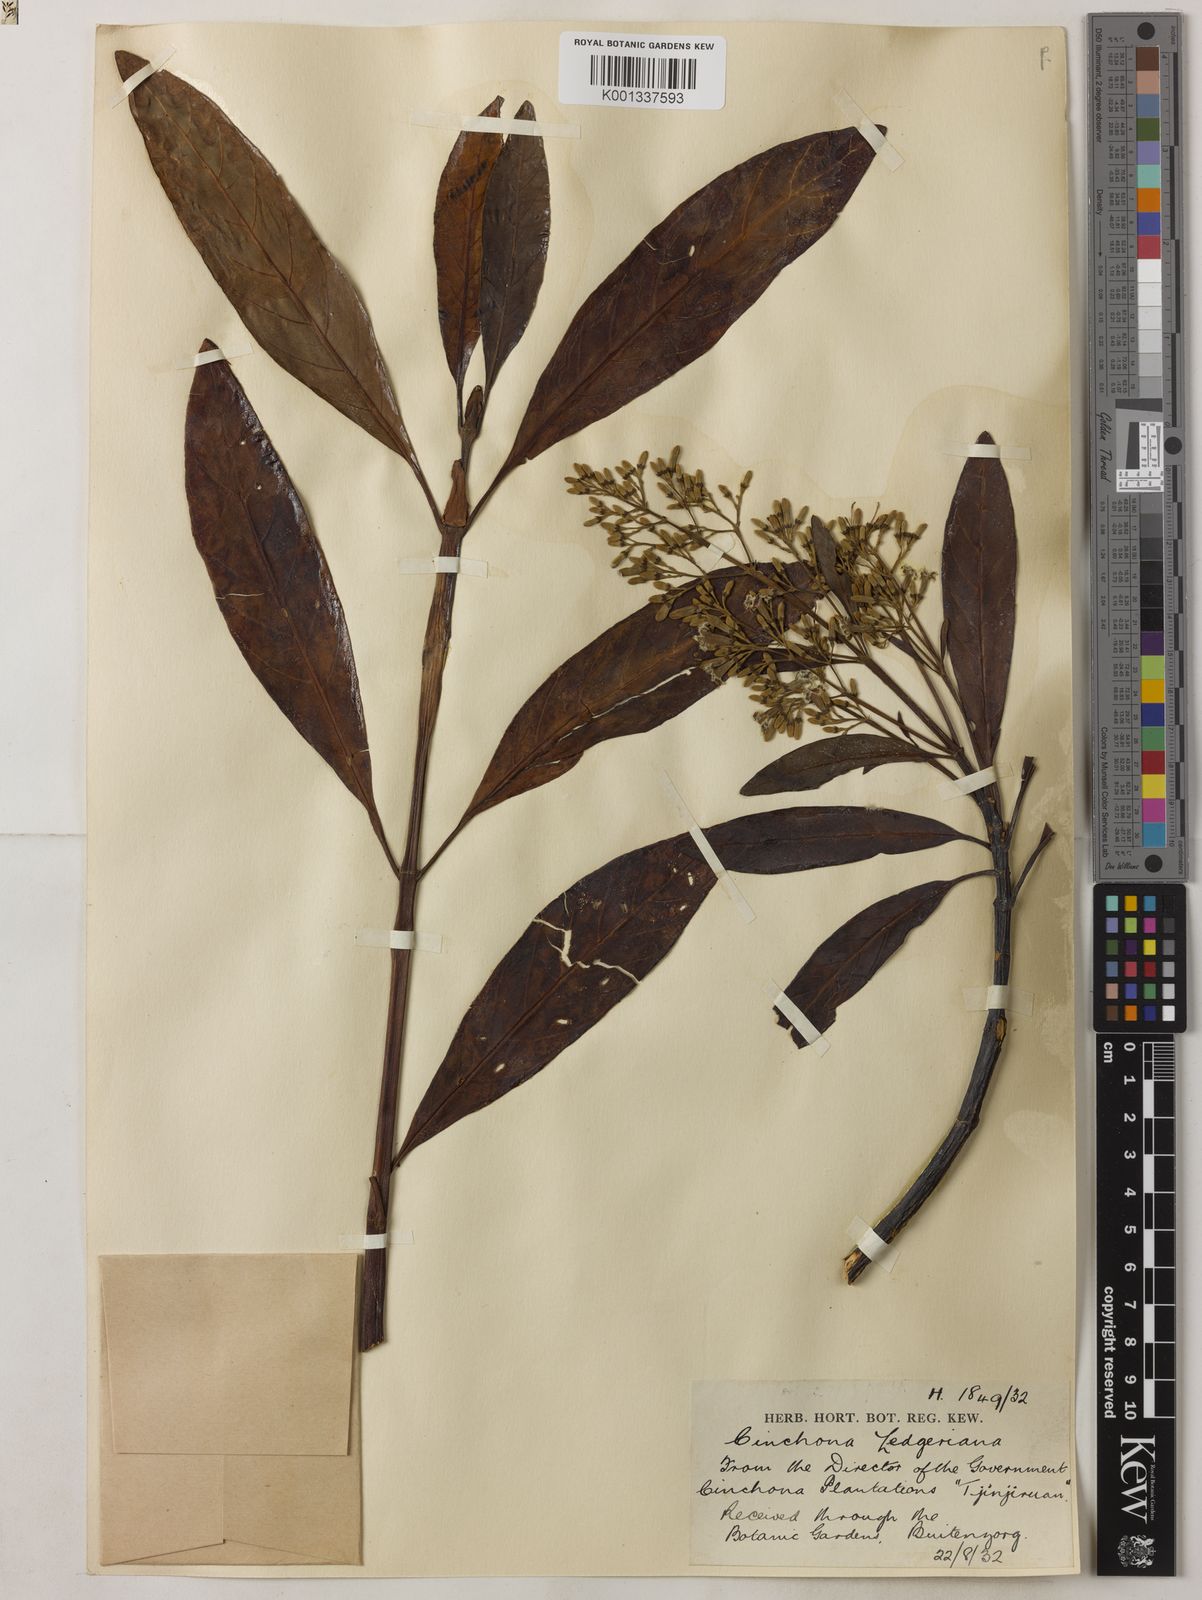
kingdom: Plantae
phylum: Tracheophyta
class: Magnoliopsida
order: Gentianales
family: Rubiaceae
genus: Cinchona
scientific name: Cinchona calisaya
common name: Ledgerbark
